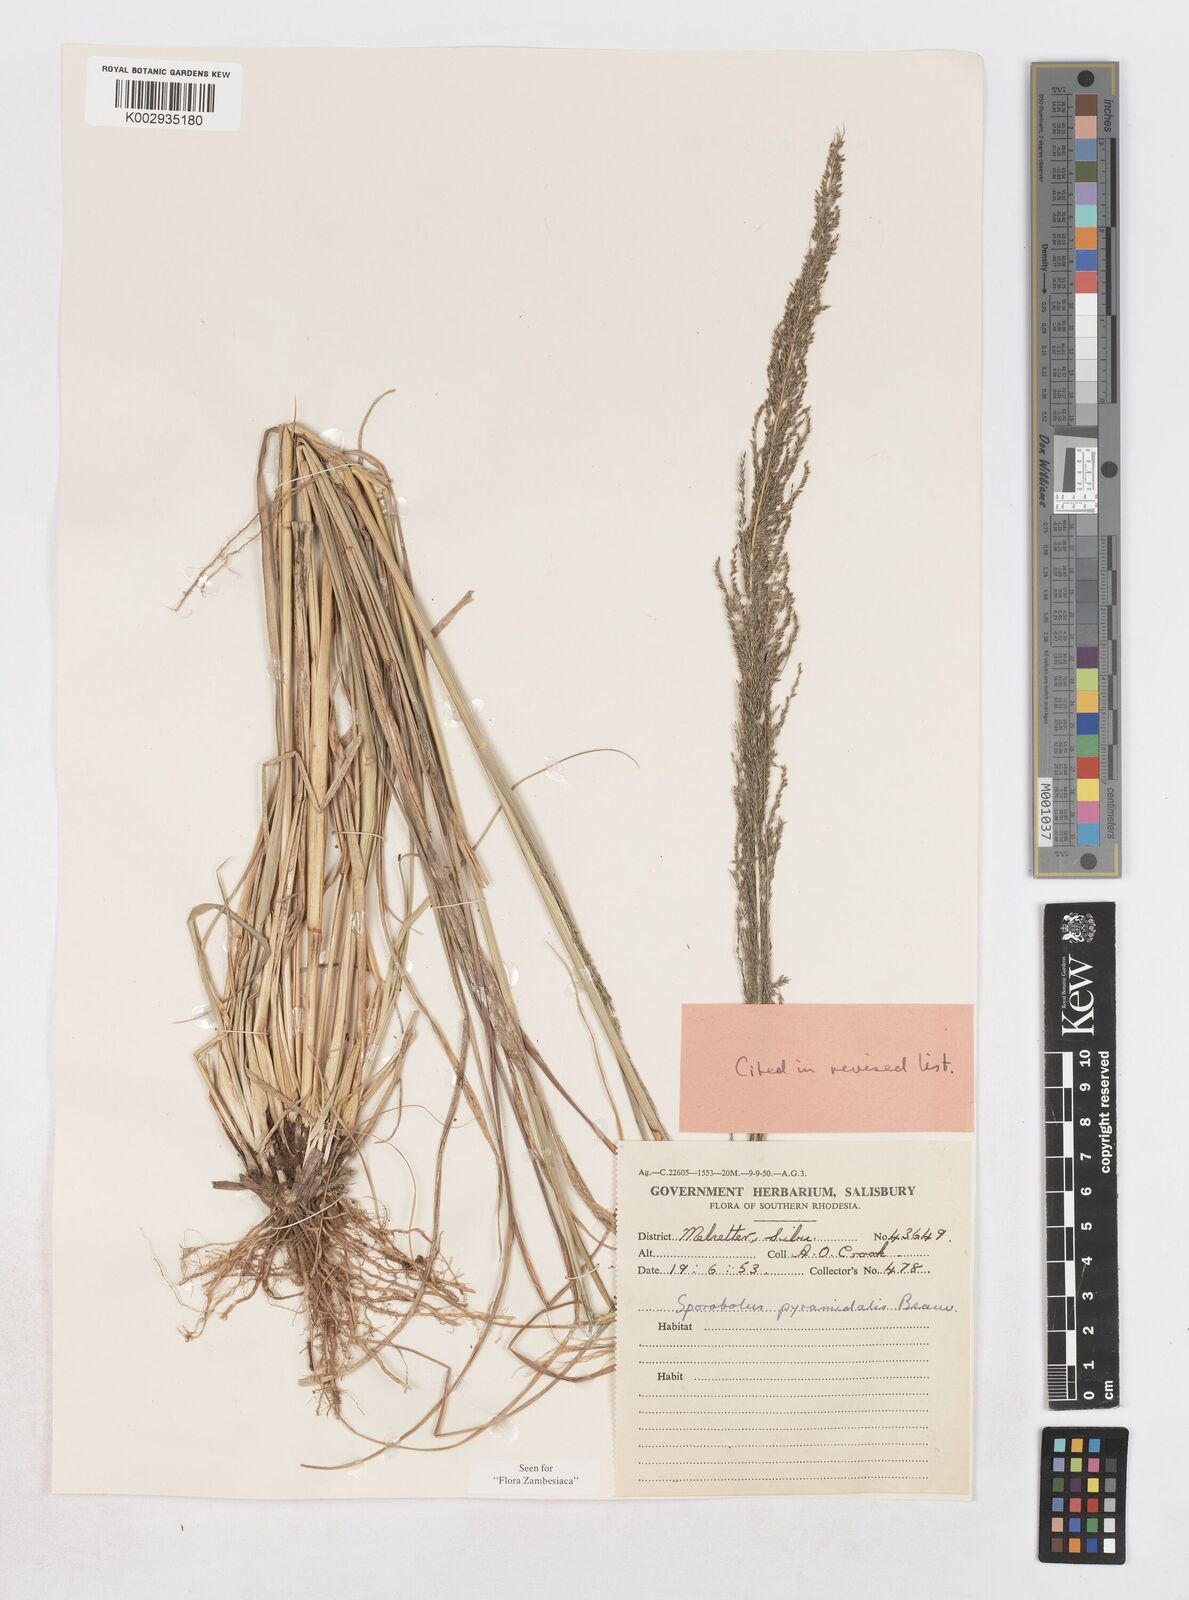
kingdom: Plantae
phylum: Tracheophyta
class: Liliopsida
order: Poales
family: Poaceae
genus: Sporobolus
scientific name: Sporobolus pyramidalis
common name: West indian dropseed
